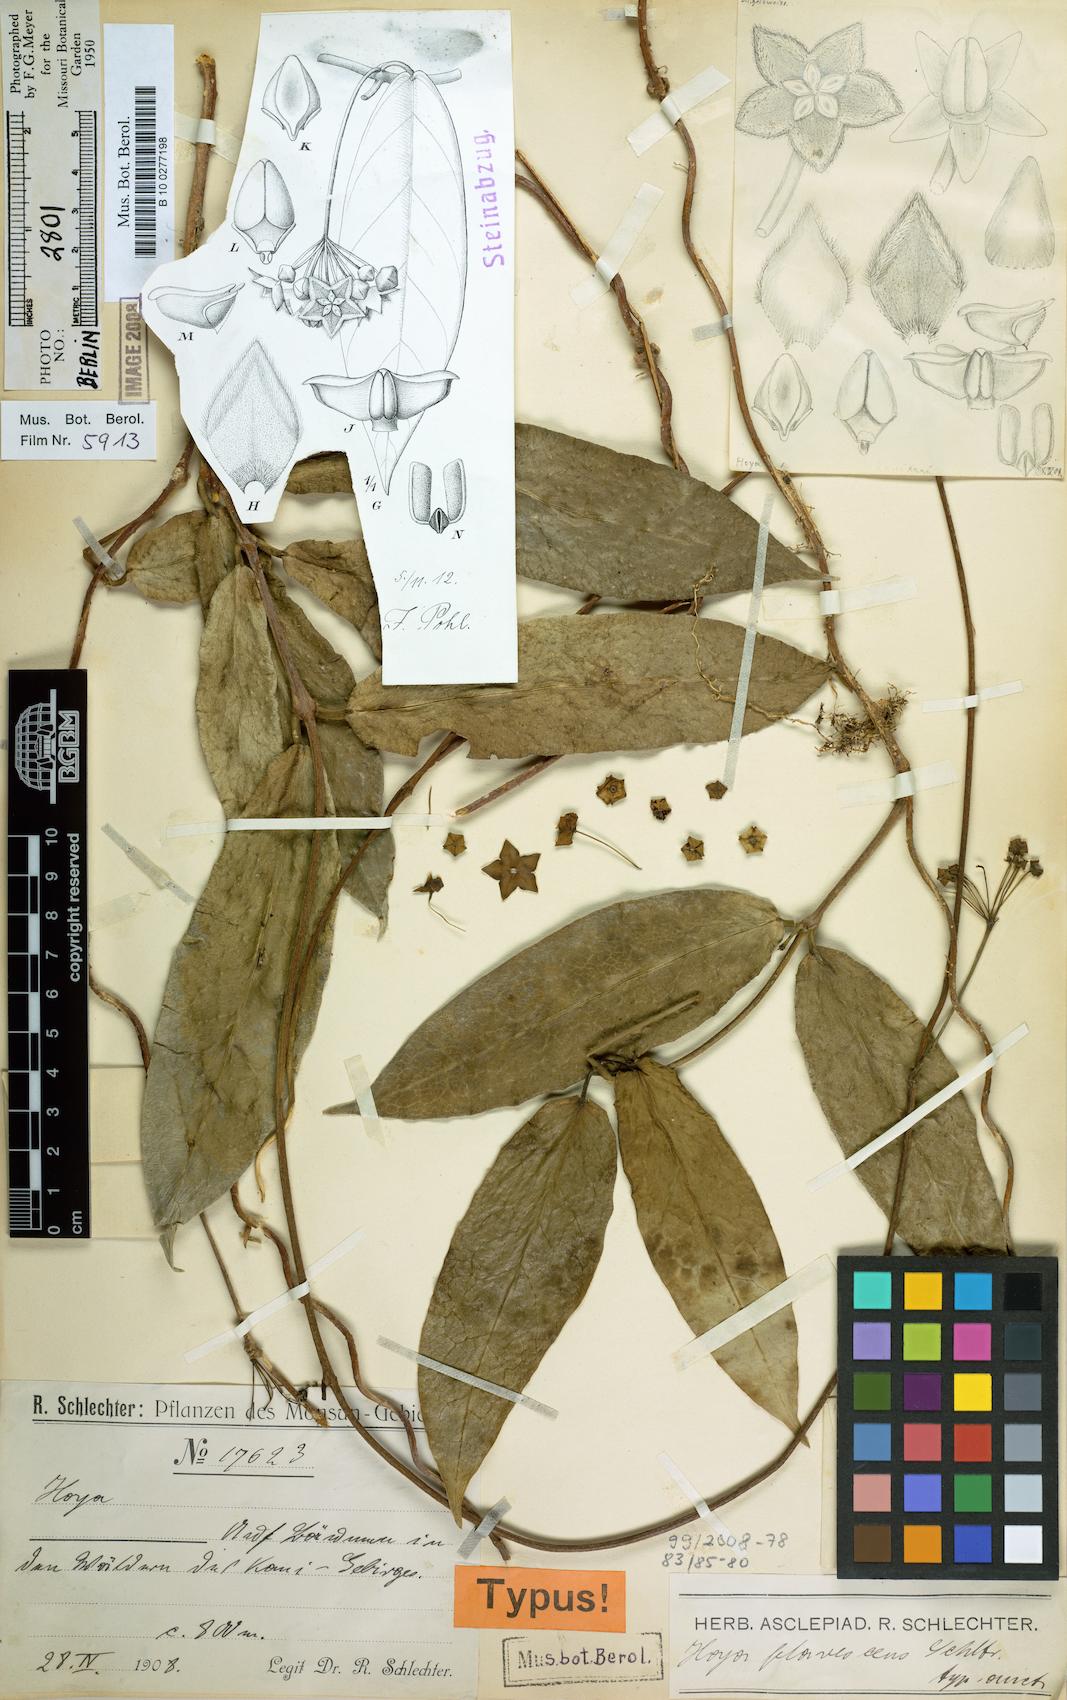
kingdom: Plantae
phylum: Tracheophyta
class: Magnoliopsida
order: Gentianales
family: Apocynaceae
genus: Hoya
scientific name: Hoya ischnopus
